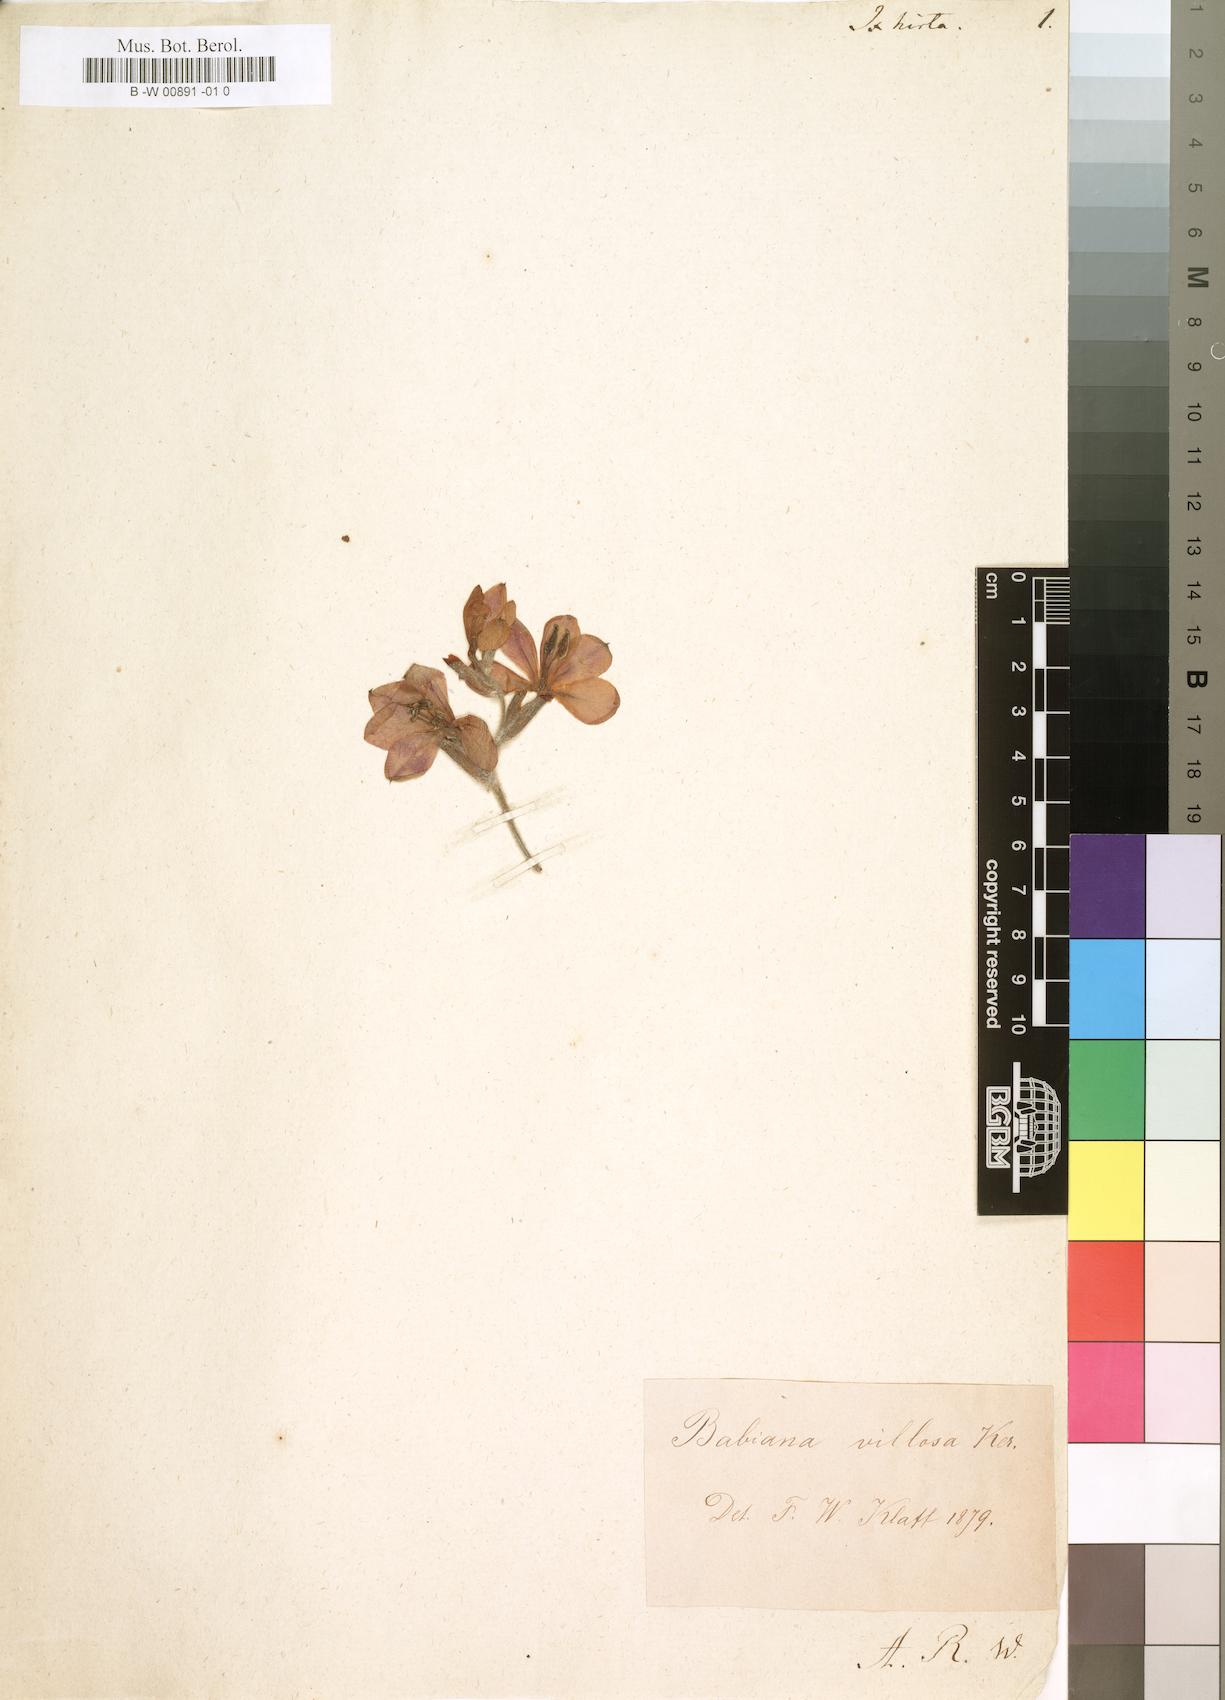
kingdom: Plantae
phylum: Tracheophyta
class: Liliopsida
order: Asparagales
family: Iridaceae
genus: Geissorhiza
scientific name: Geissorhiza inflexa
